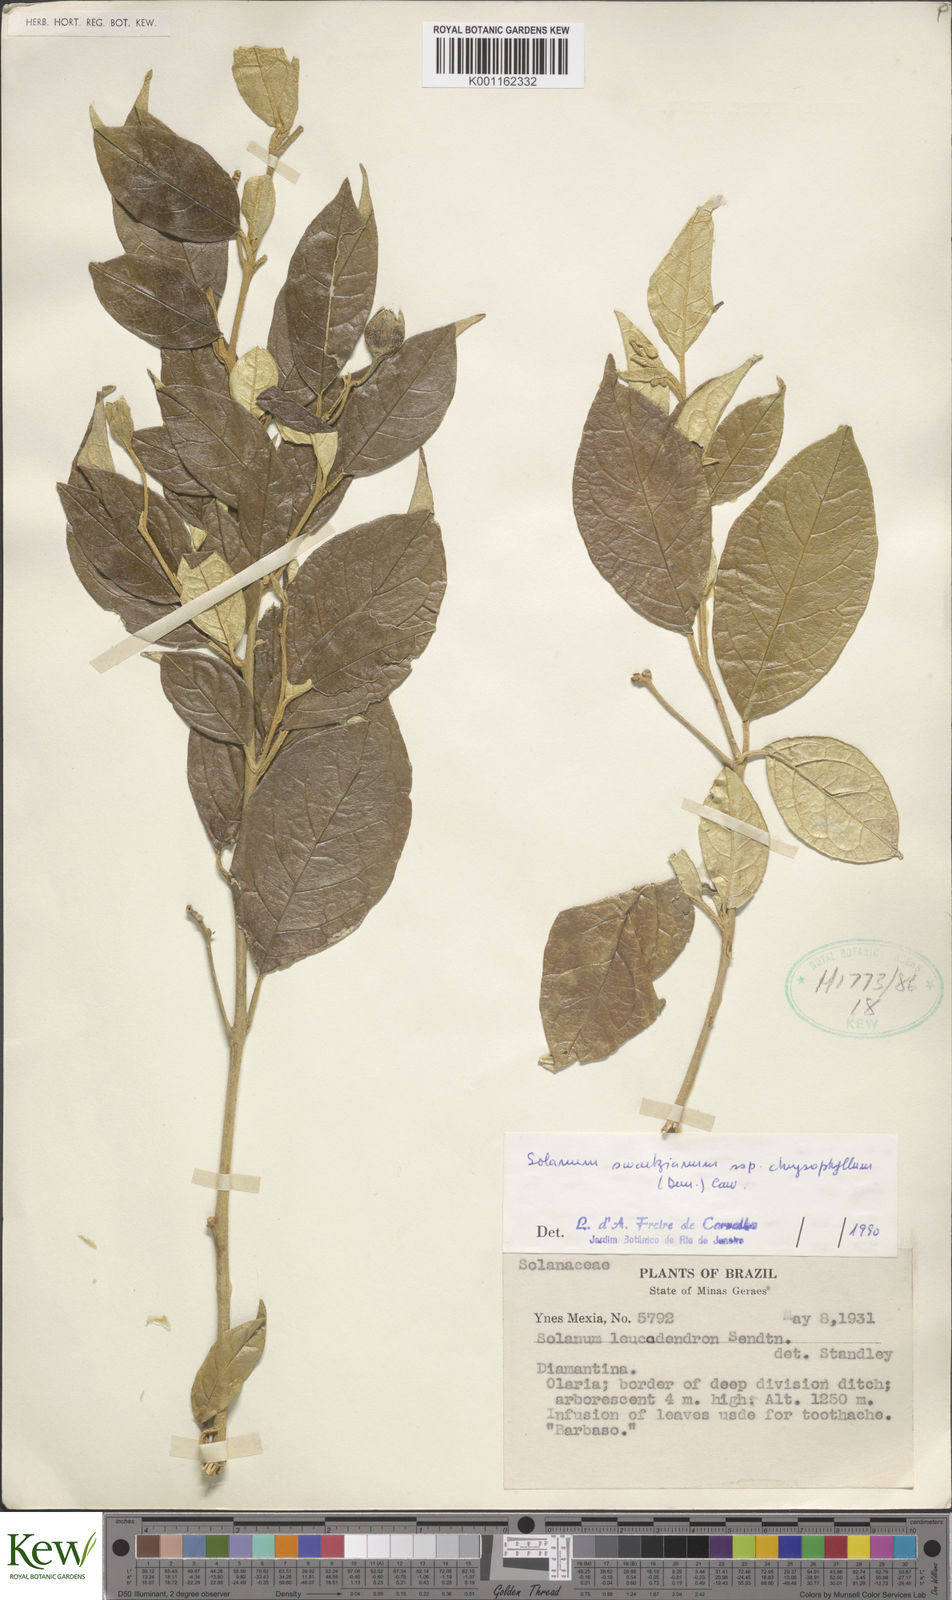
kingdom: Plantae
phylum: Tracheophyta
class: Magnoliopsida
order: Solanales
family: Solanaceae
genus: Solanum
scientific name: Solanum swartzianum
